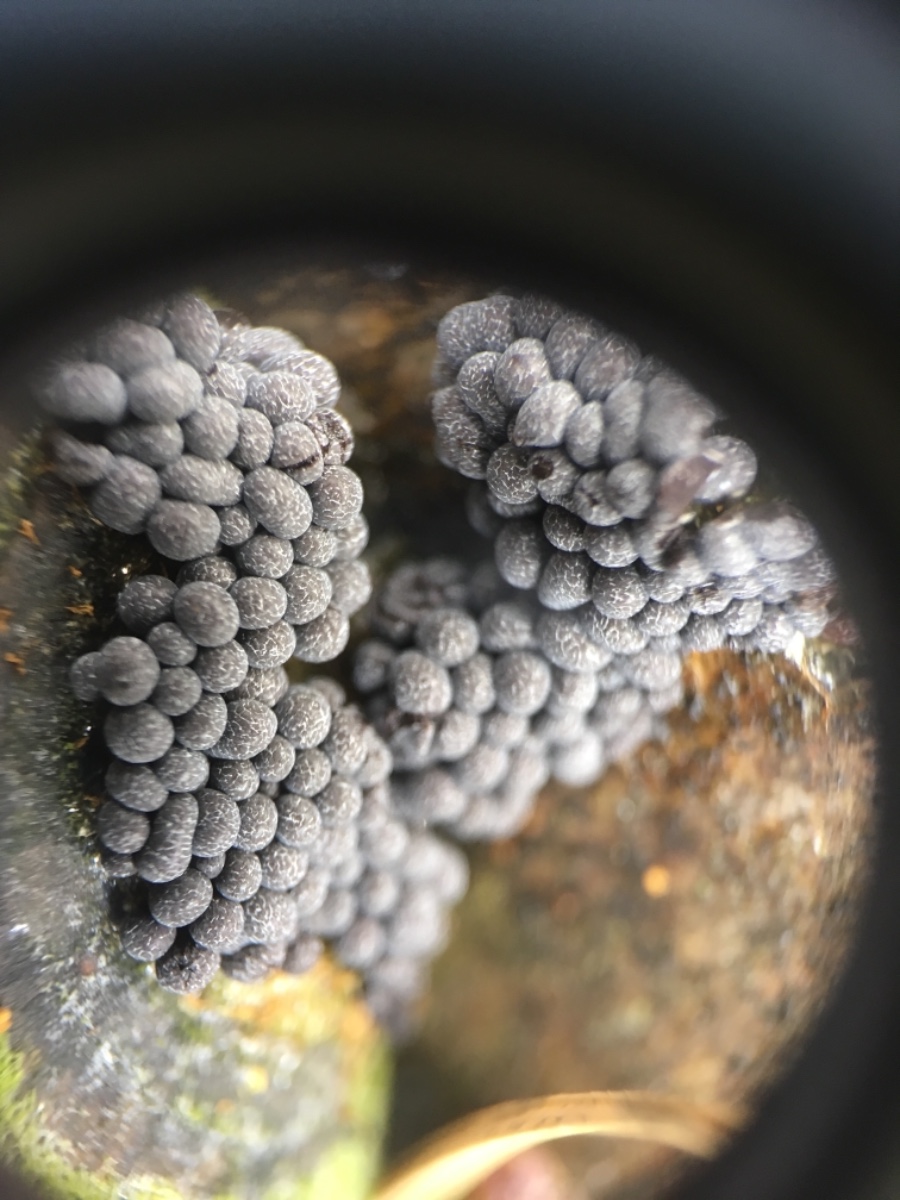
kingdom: Protozoa
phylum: Mycetozoa
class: Myxomycetes
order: Physarales
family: Physaraceae
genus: Badhamia
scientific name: Badhamia
